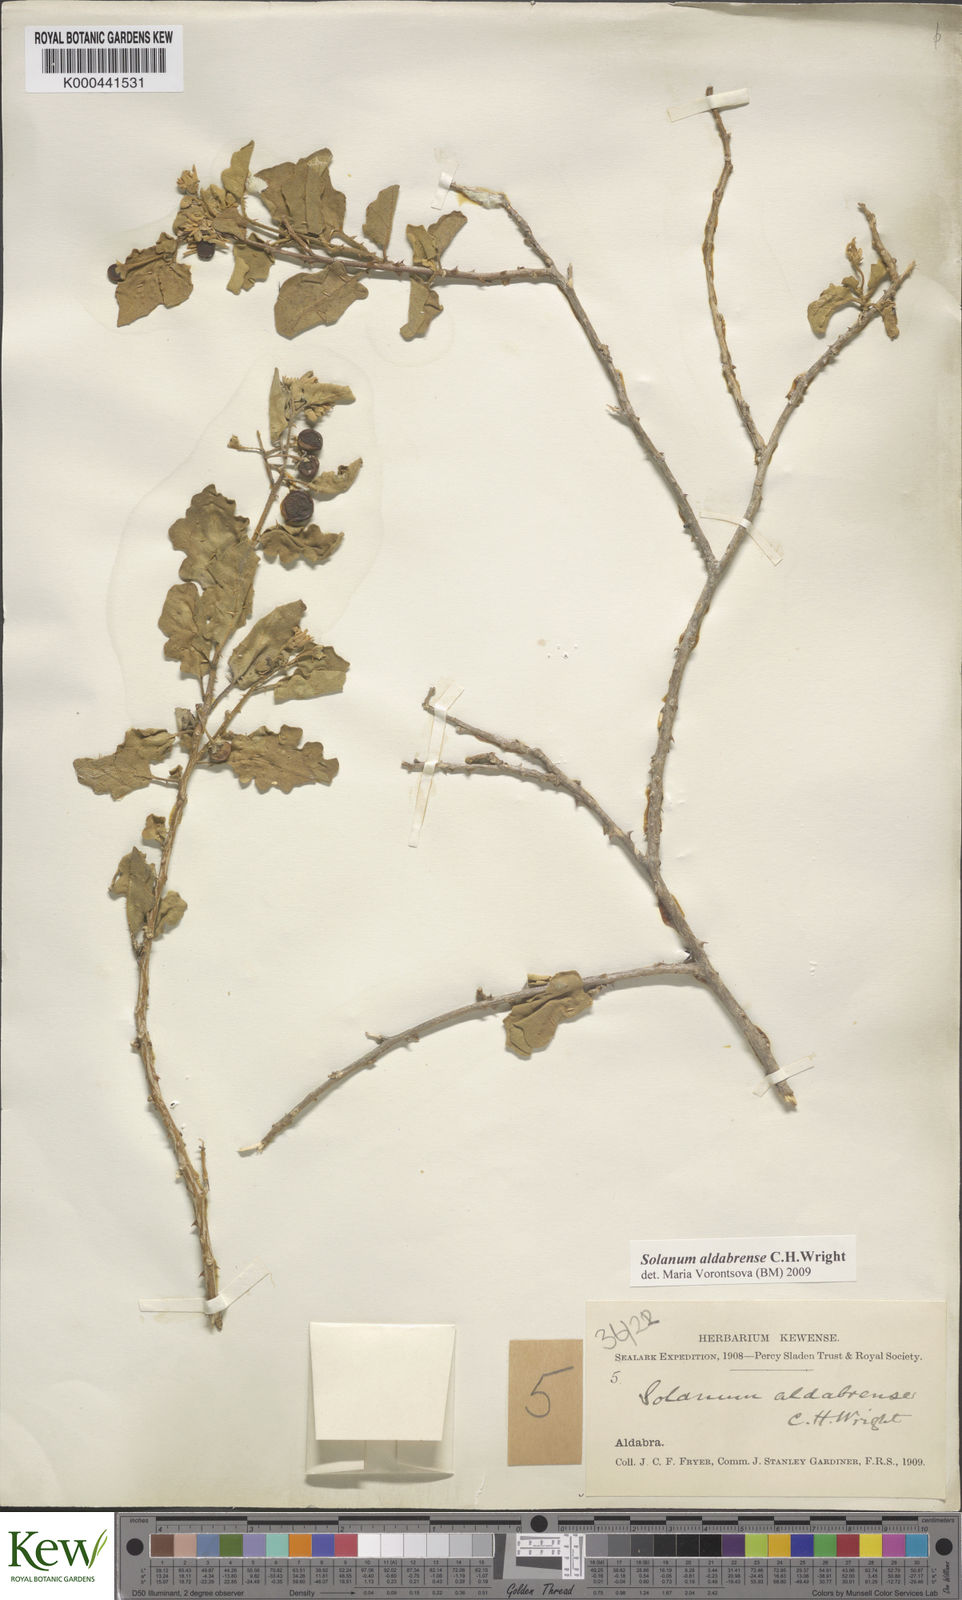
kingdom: Plantae
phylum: Tracheophyta
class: Magnoliopsida
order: Solanales
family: Solanaceae
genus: Solanum
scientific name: Solanum aldabrense
